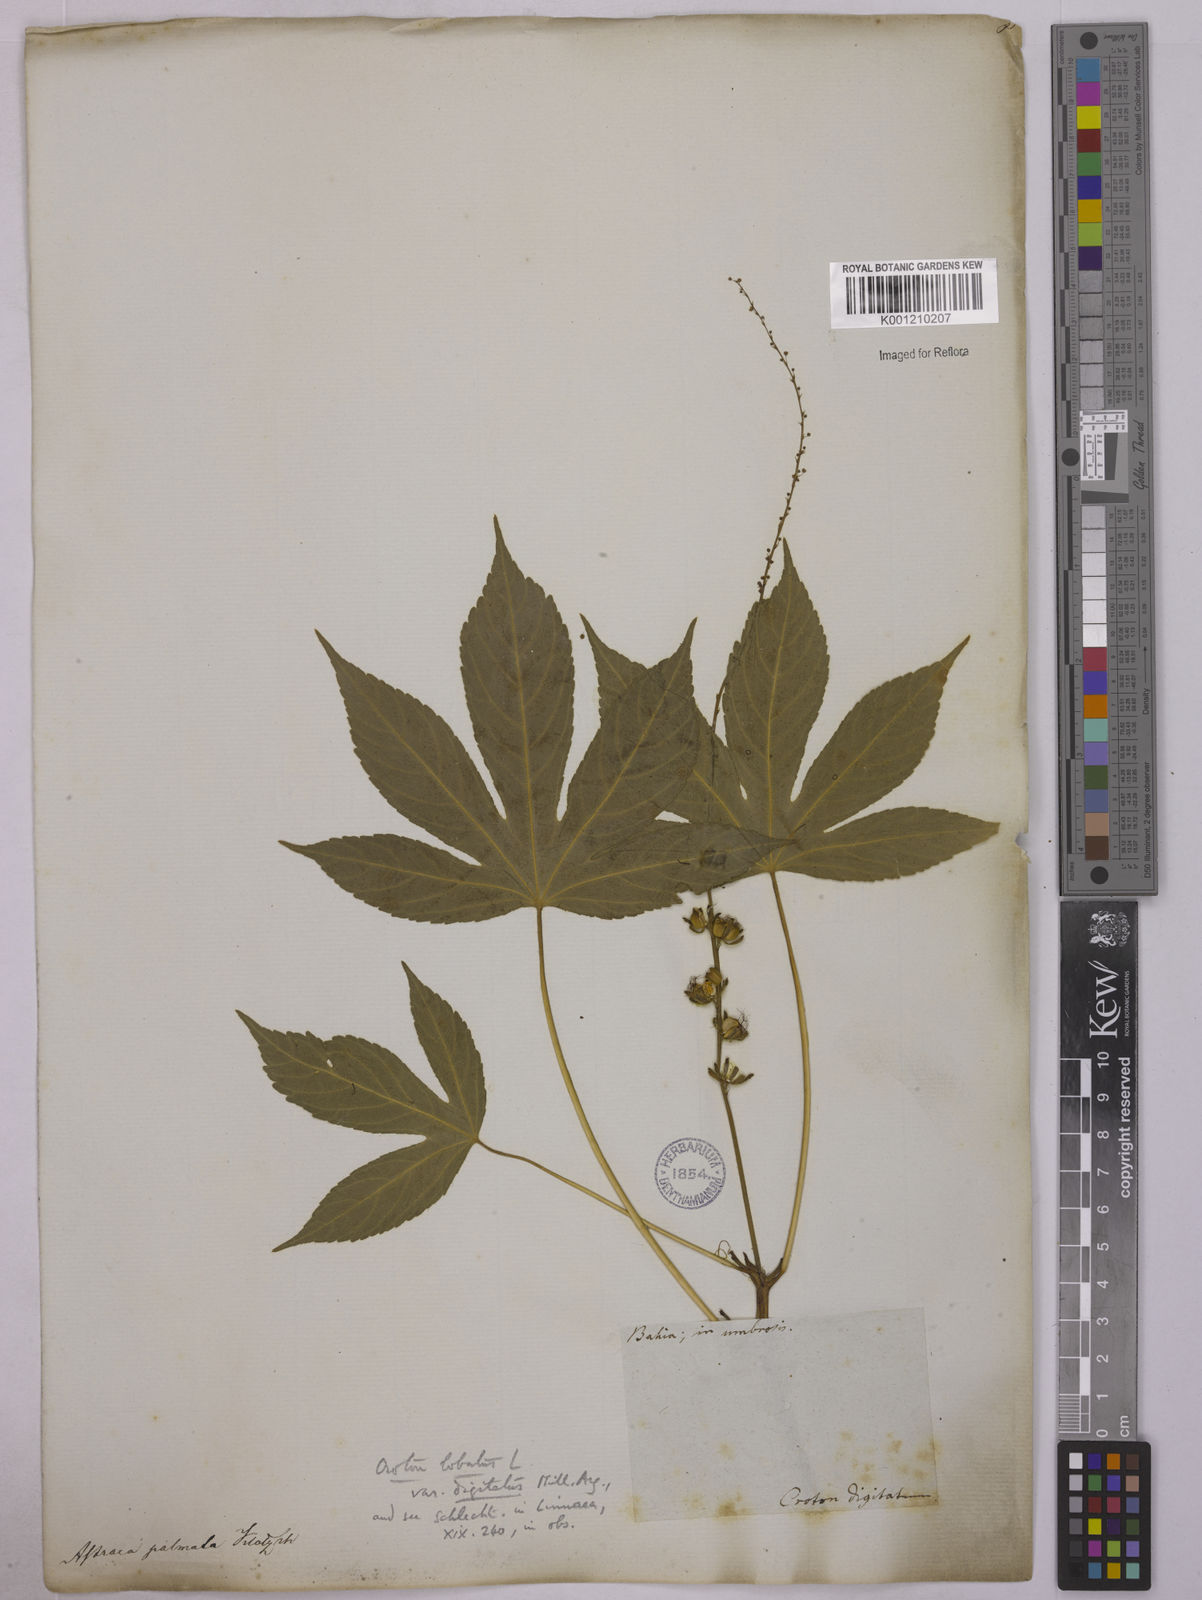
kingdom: Plantae
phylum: Tracheophyta
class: Magnoliopsida
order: Malpighiales
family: Euphorbiaceae
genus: Astraea
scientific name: Astraea lobata
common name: Lobed croton
